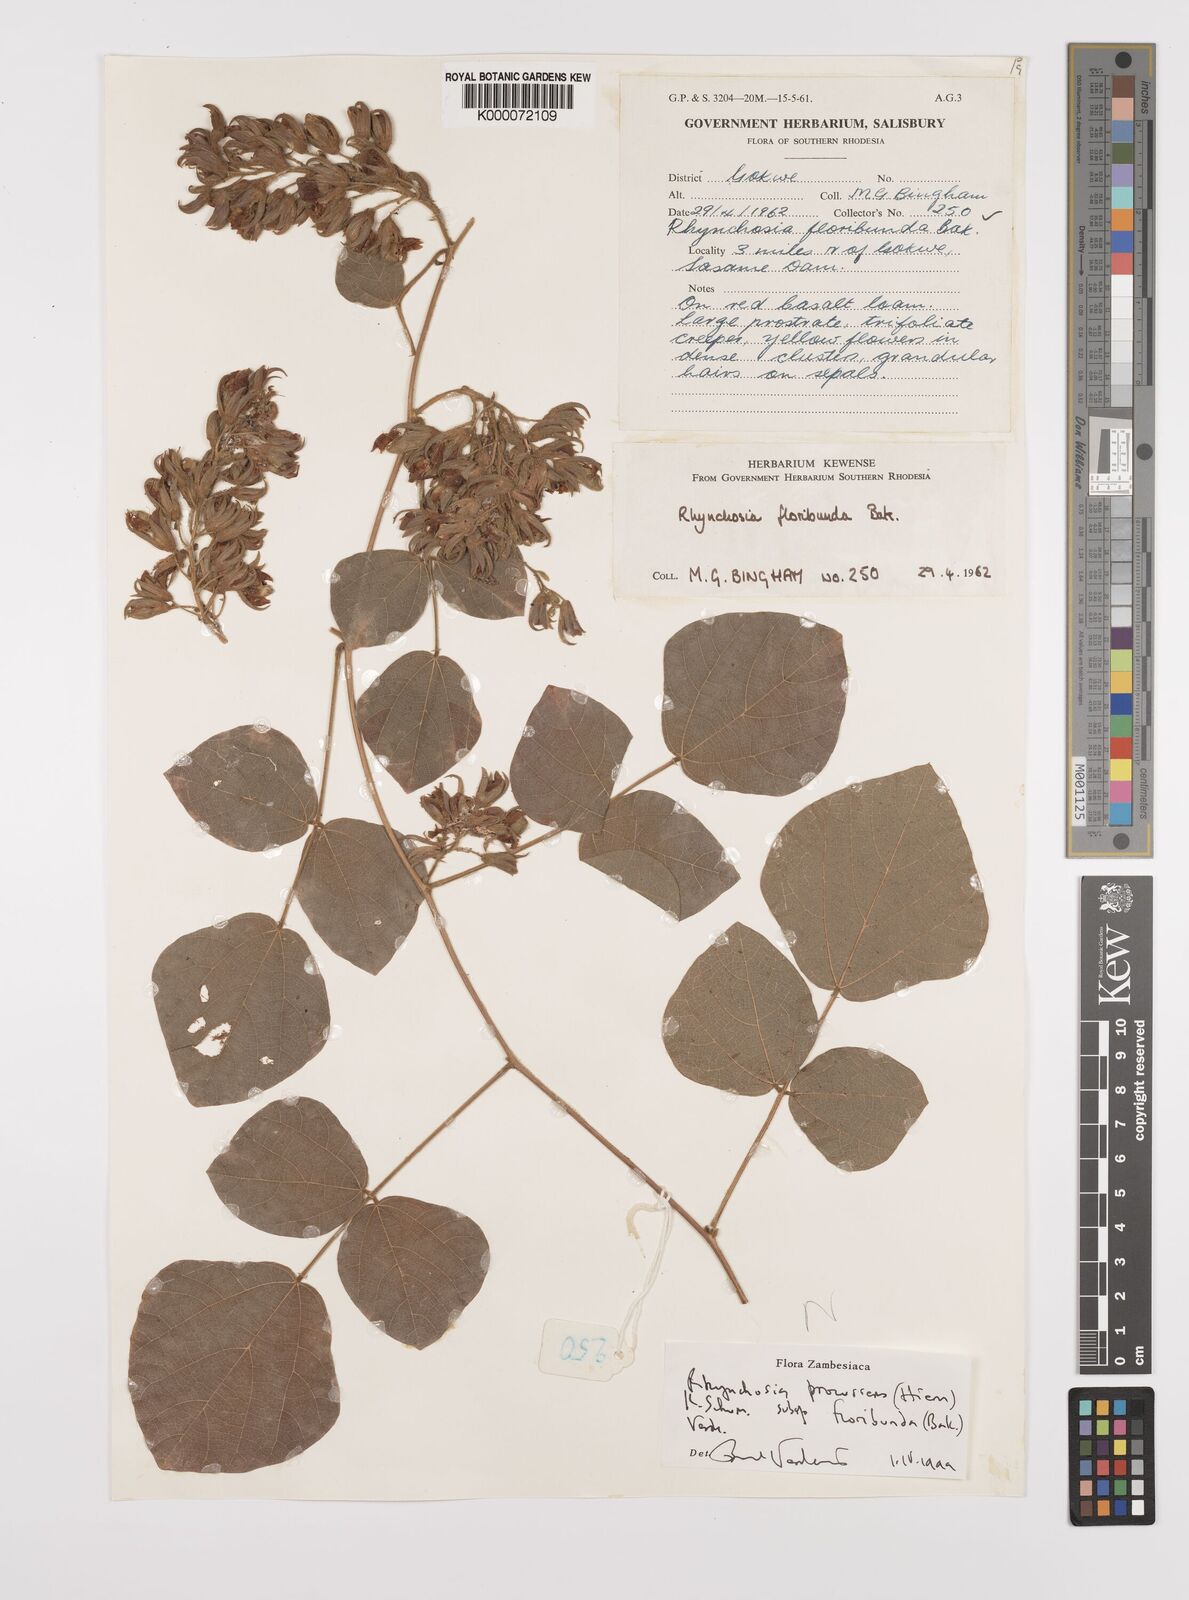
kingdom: Plantae
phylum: Tracheophyta
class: Magnoliopsida
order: Fabales
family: Fabaceae
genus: Rhynchosia
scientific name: Rhynchosia procurrens
